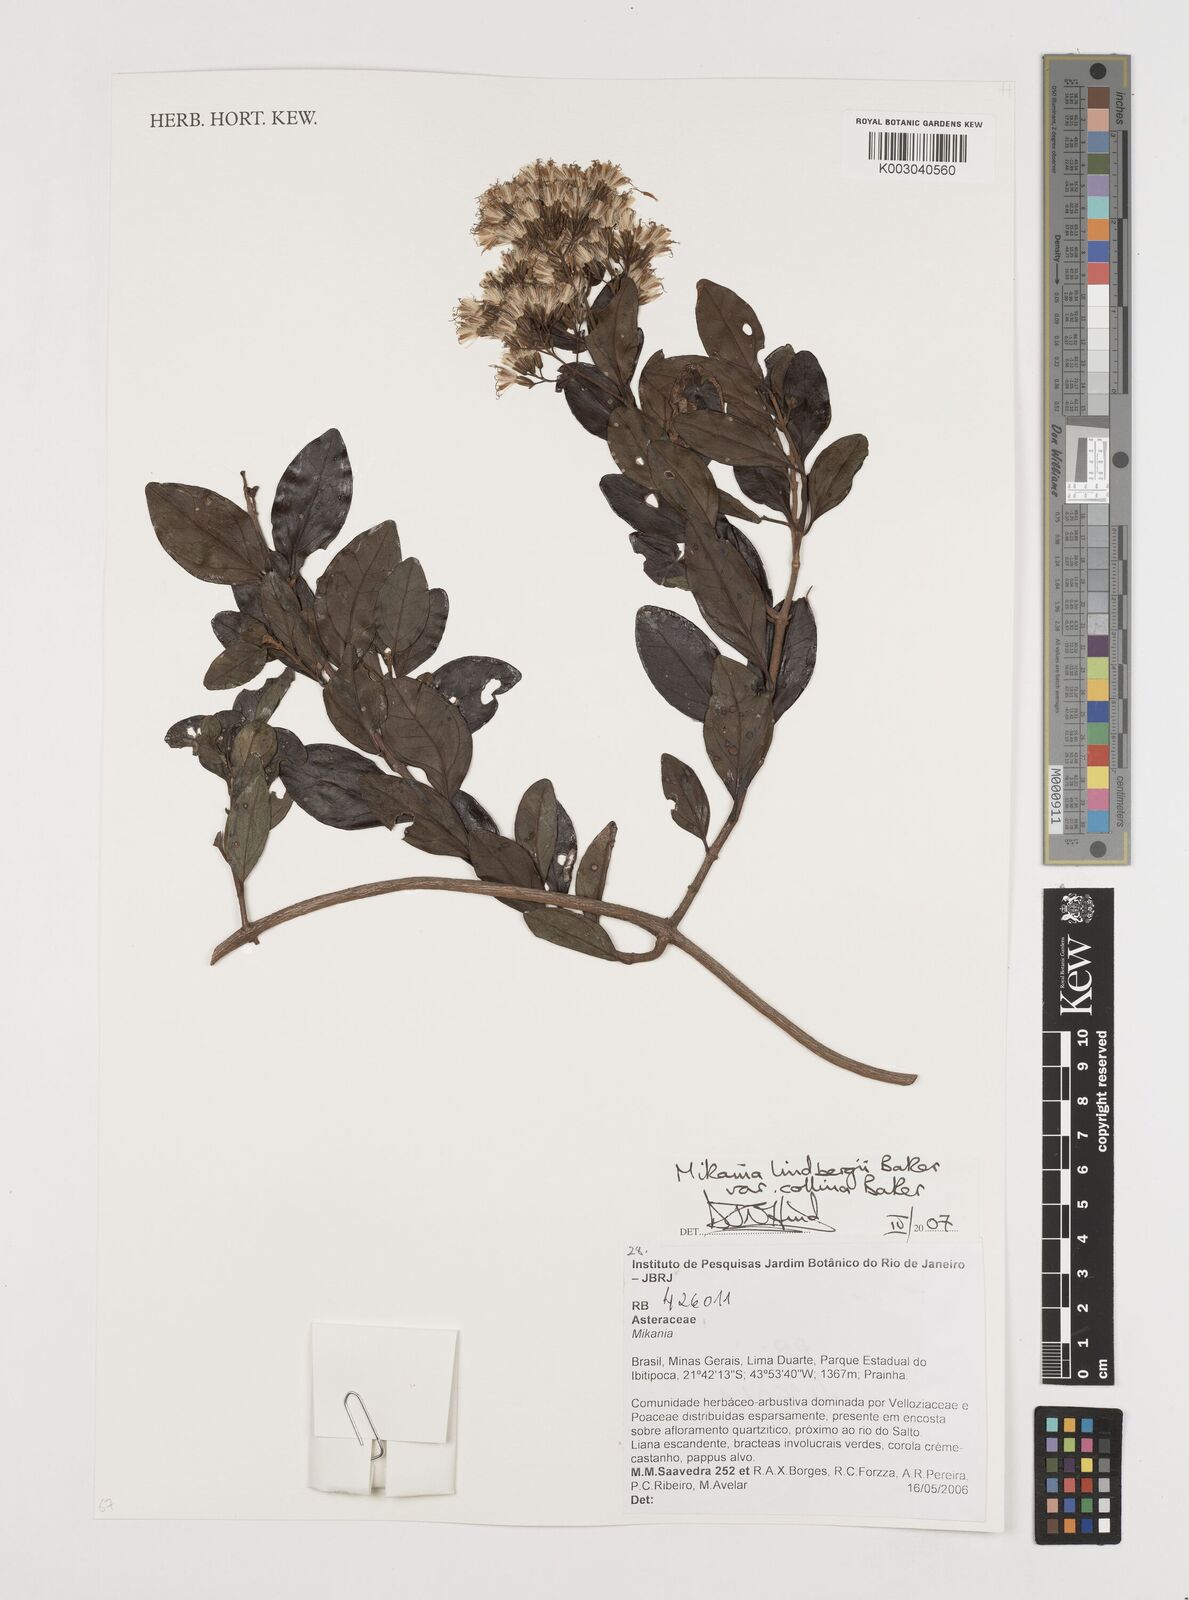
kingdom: Plantae
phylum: Tracheophyta
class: Magnoliopsida
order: Asterales
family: Asteraceae
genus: Mikania
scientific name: Mikania lindbergii
